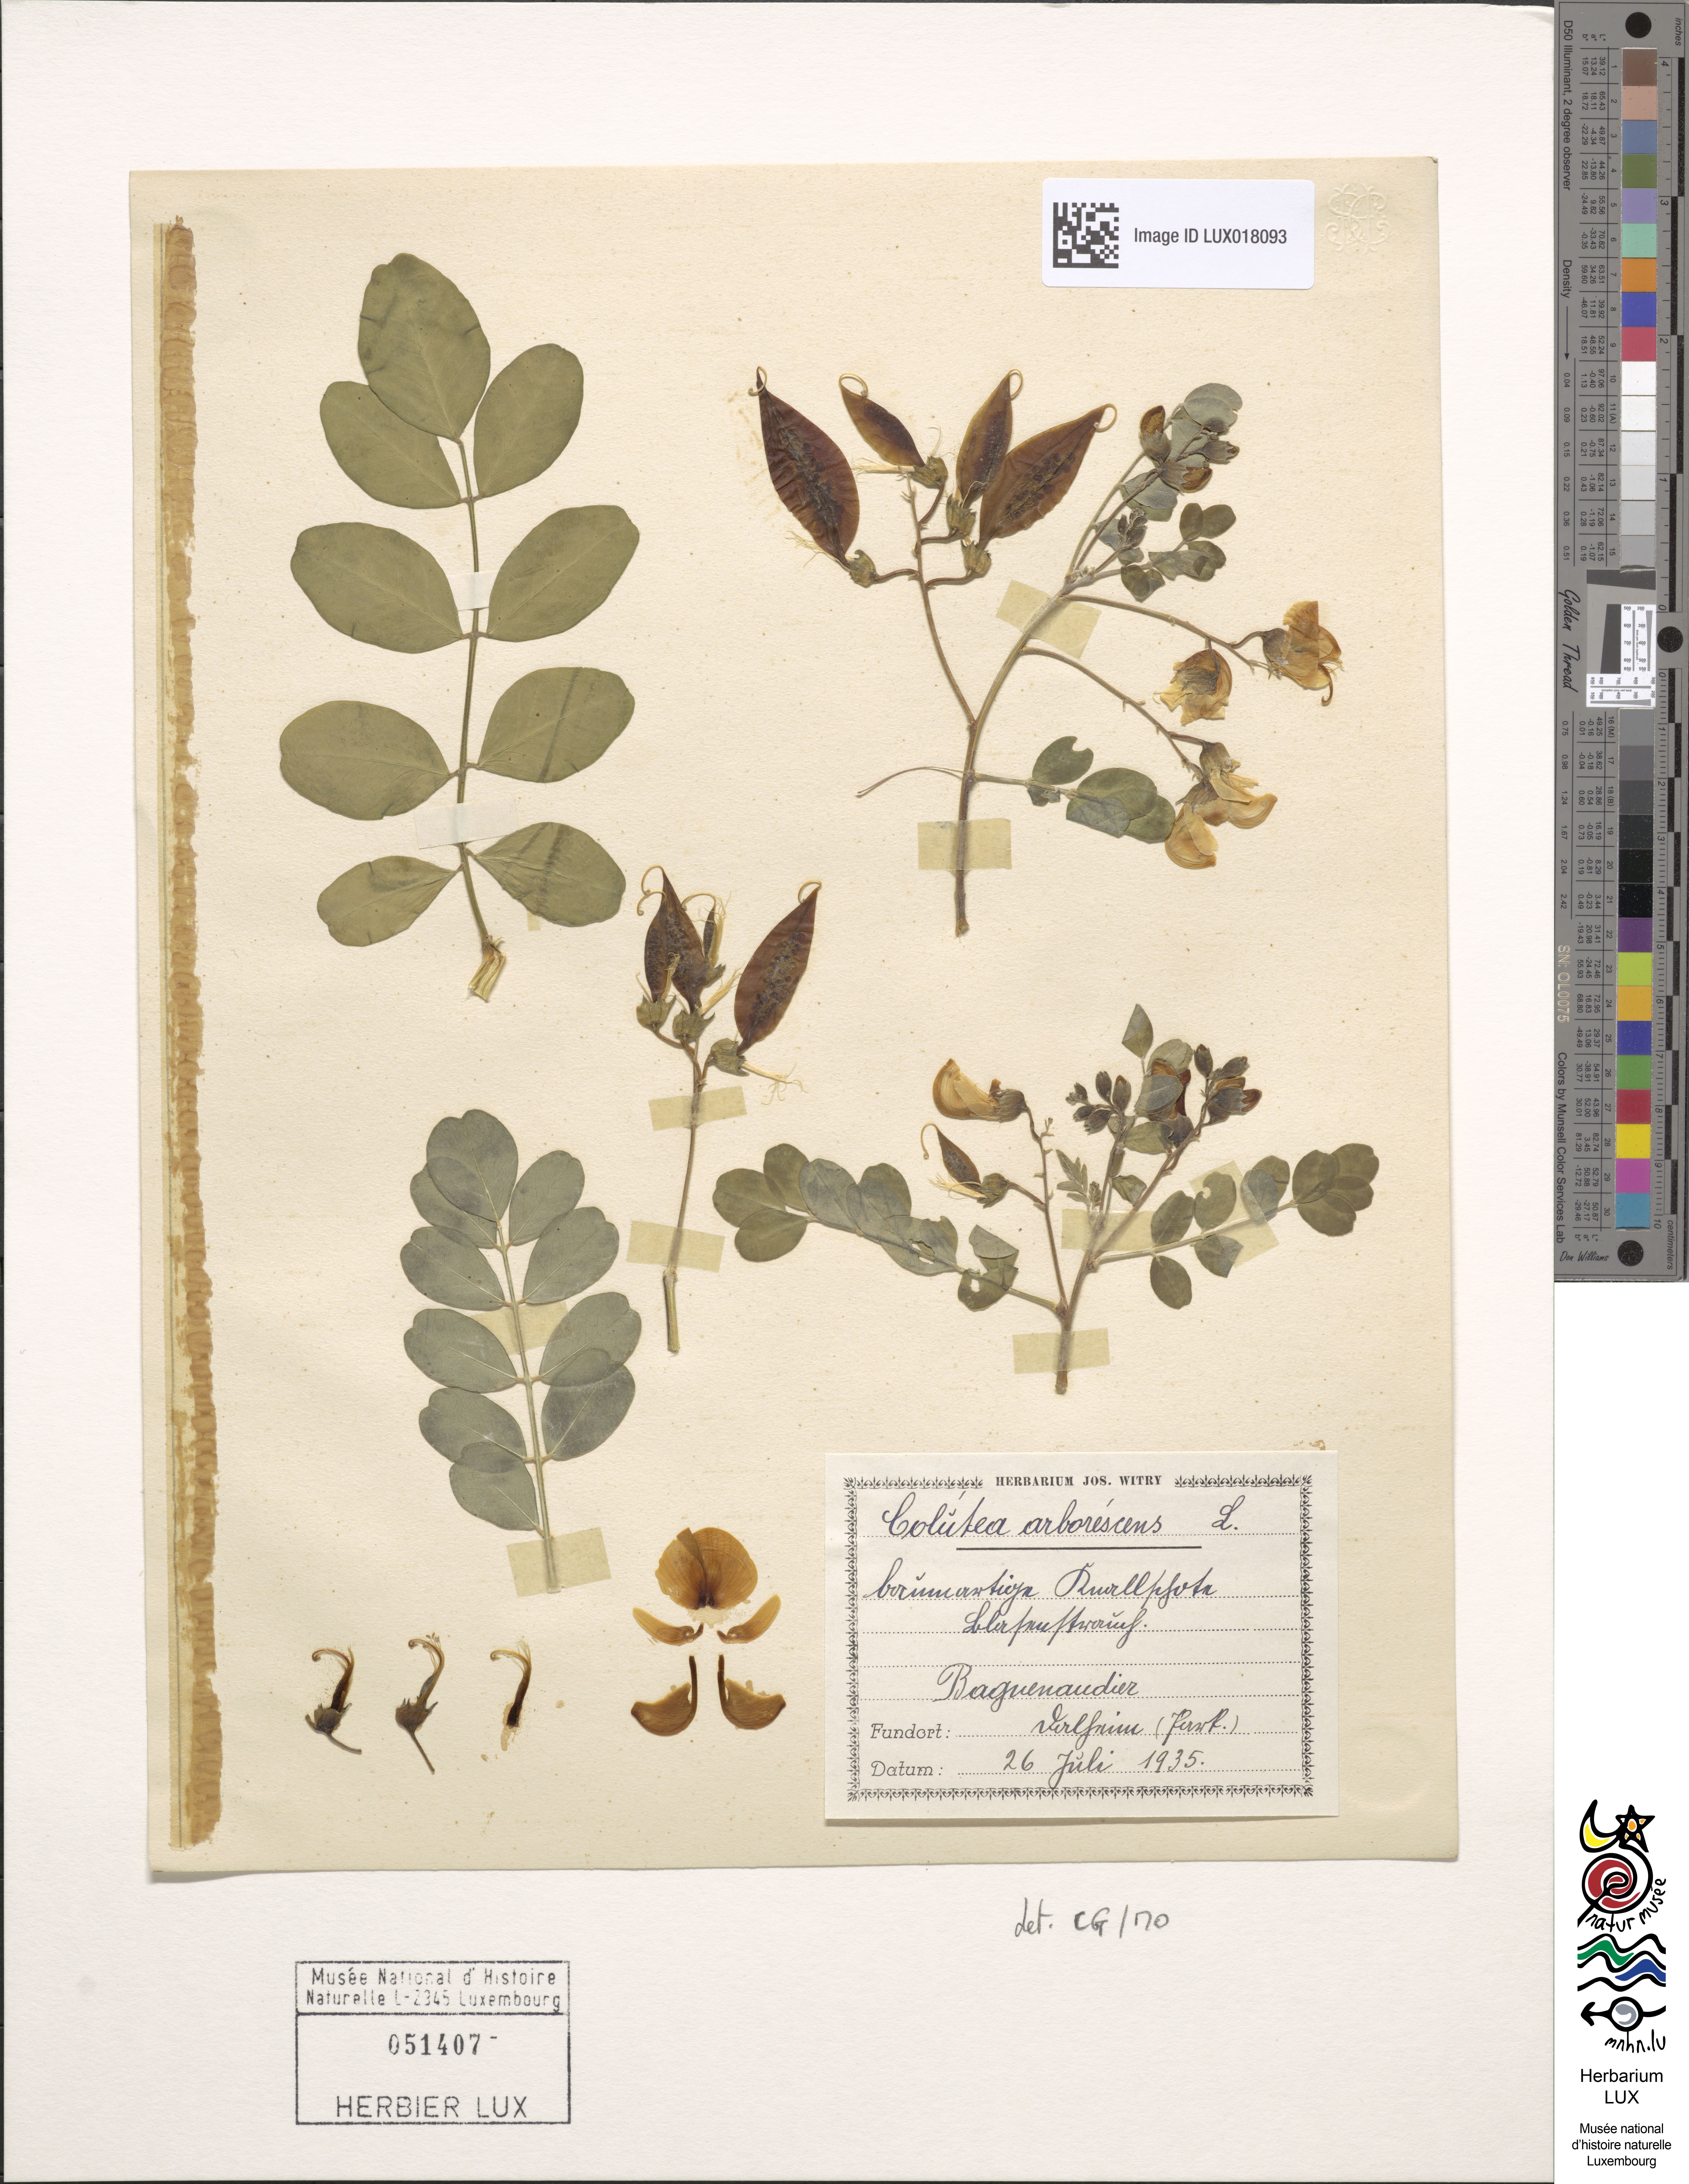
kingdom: Plantae
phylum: Tracheophyta
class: Magnoliopsida
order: Fabales
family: Fabaceae
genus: Colutea
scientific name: Colutea arborescens
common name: Bladder-senna
